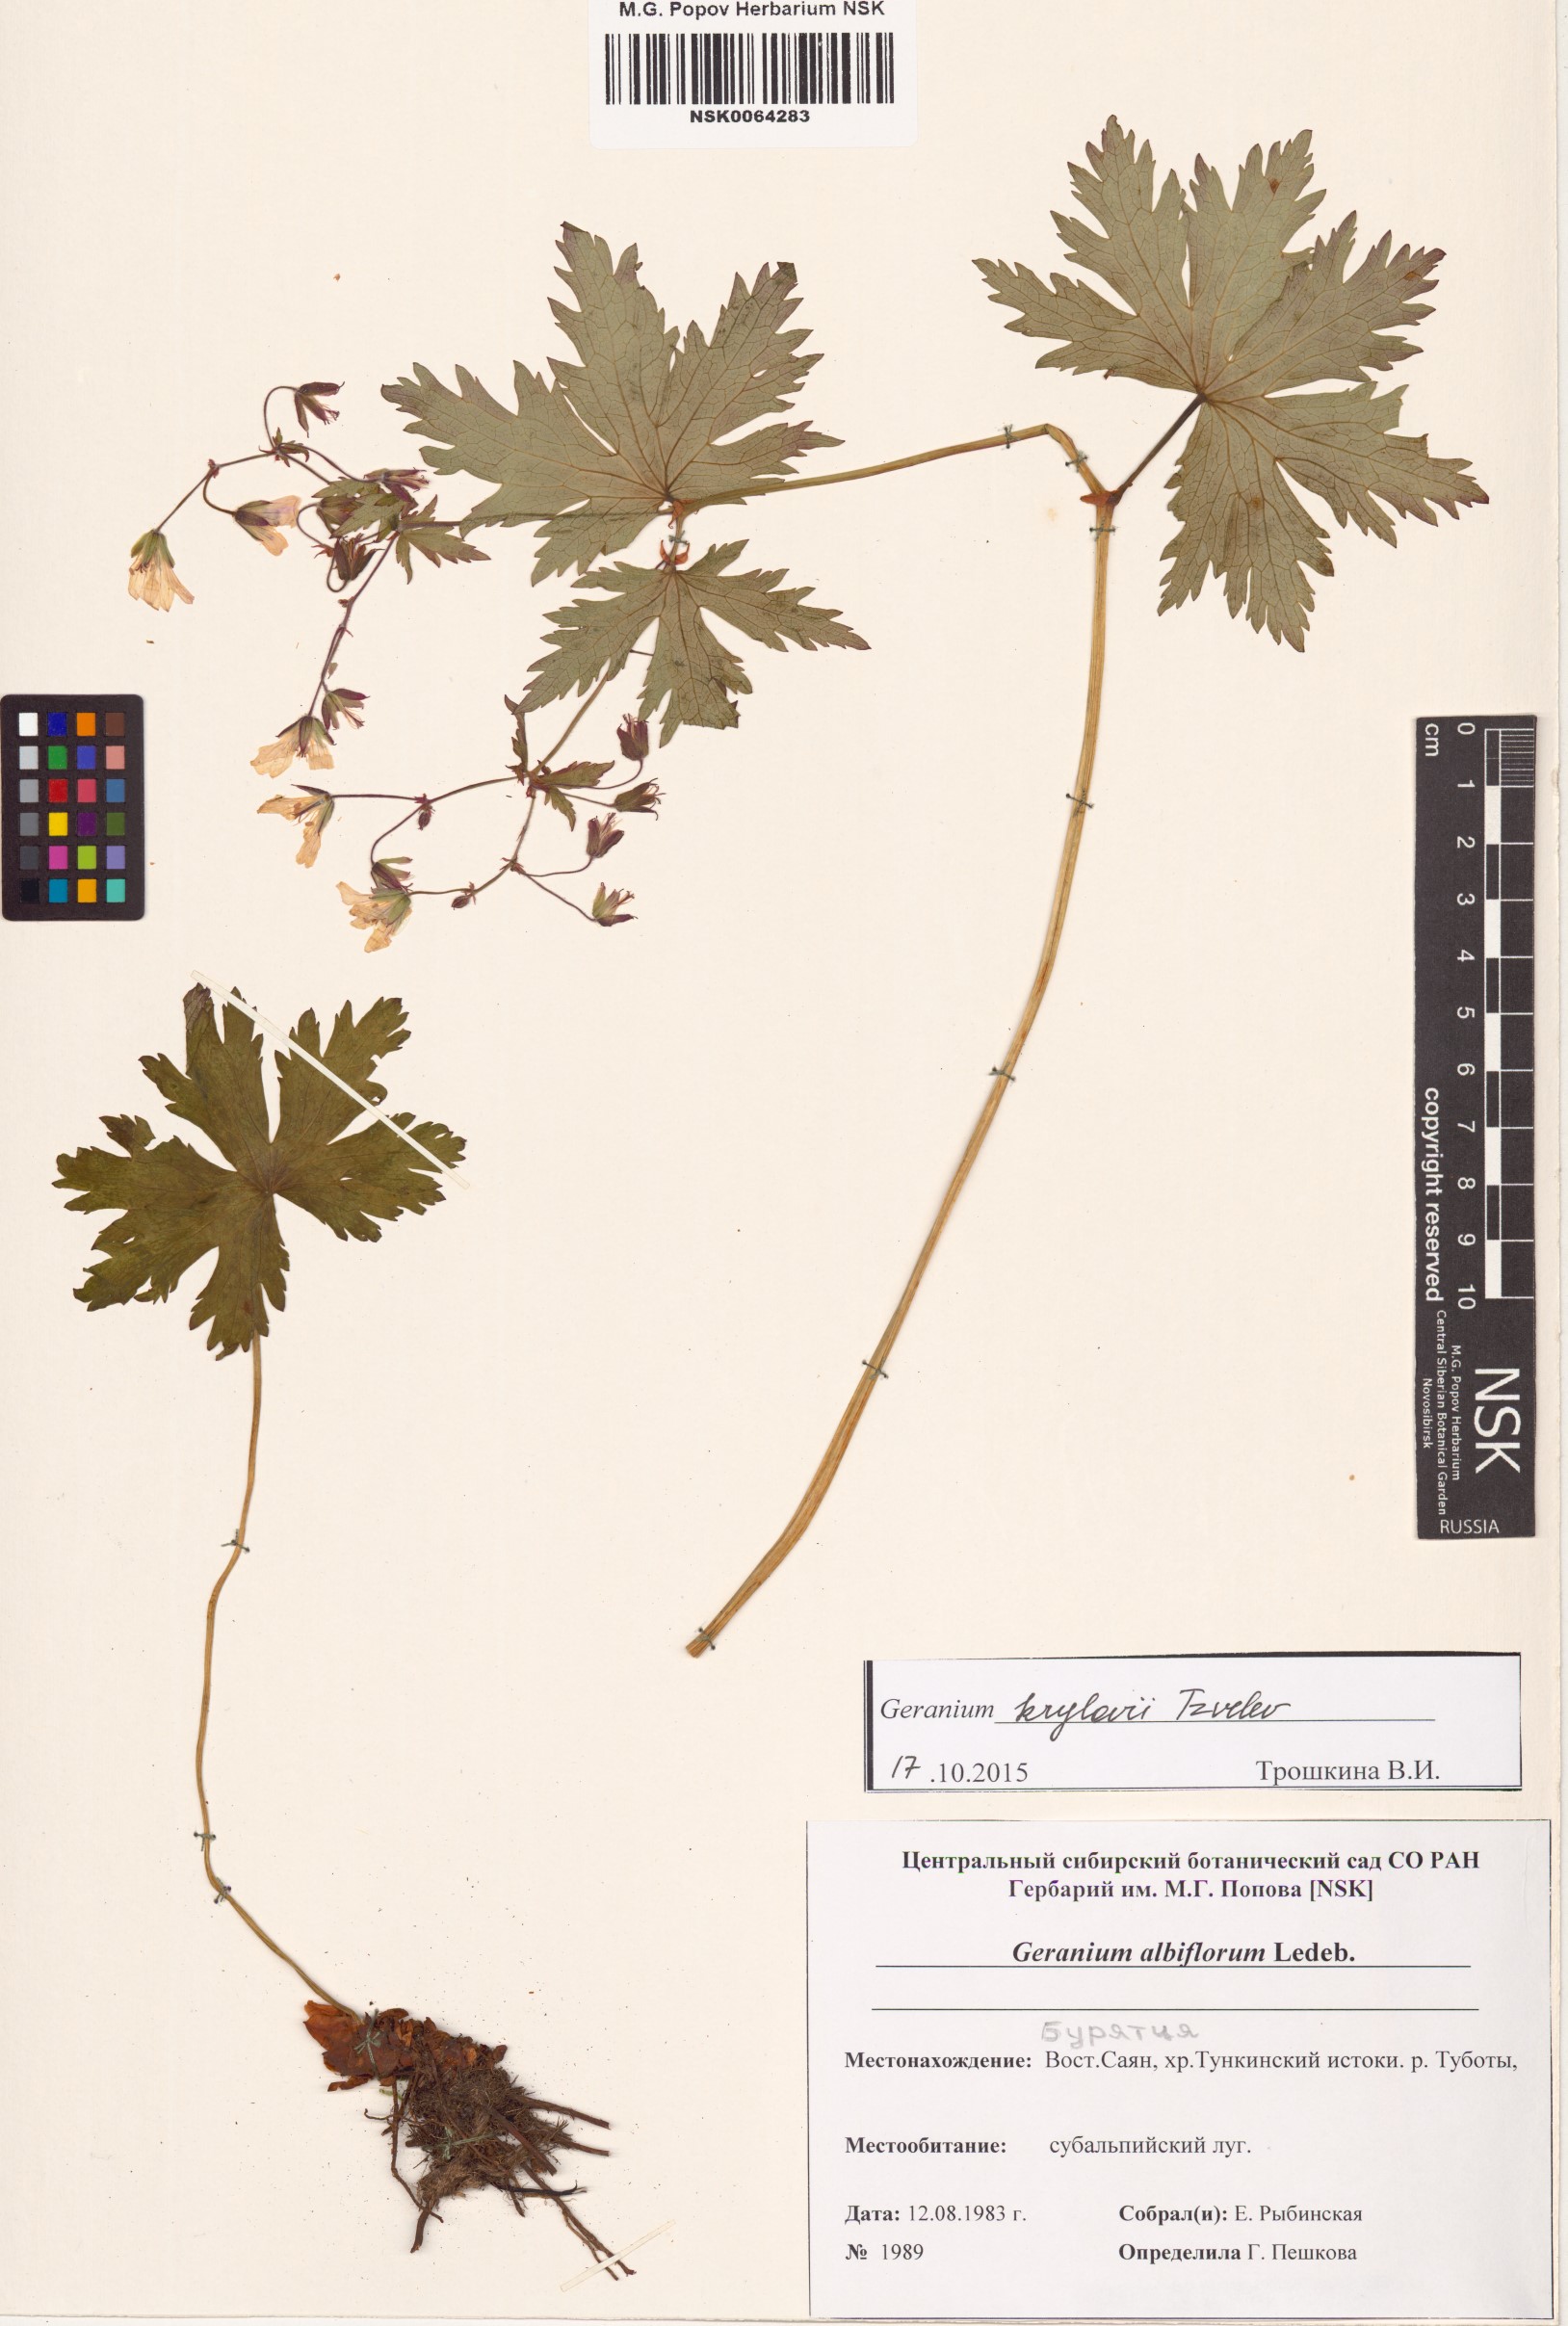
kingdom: Plantae
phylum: Tracheophyta
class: Magnoliopsida
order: Geraniales
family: Geraniaceae
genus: Geranium
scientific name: Geranium sylvaticum
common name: Wood crane's-bill
